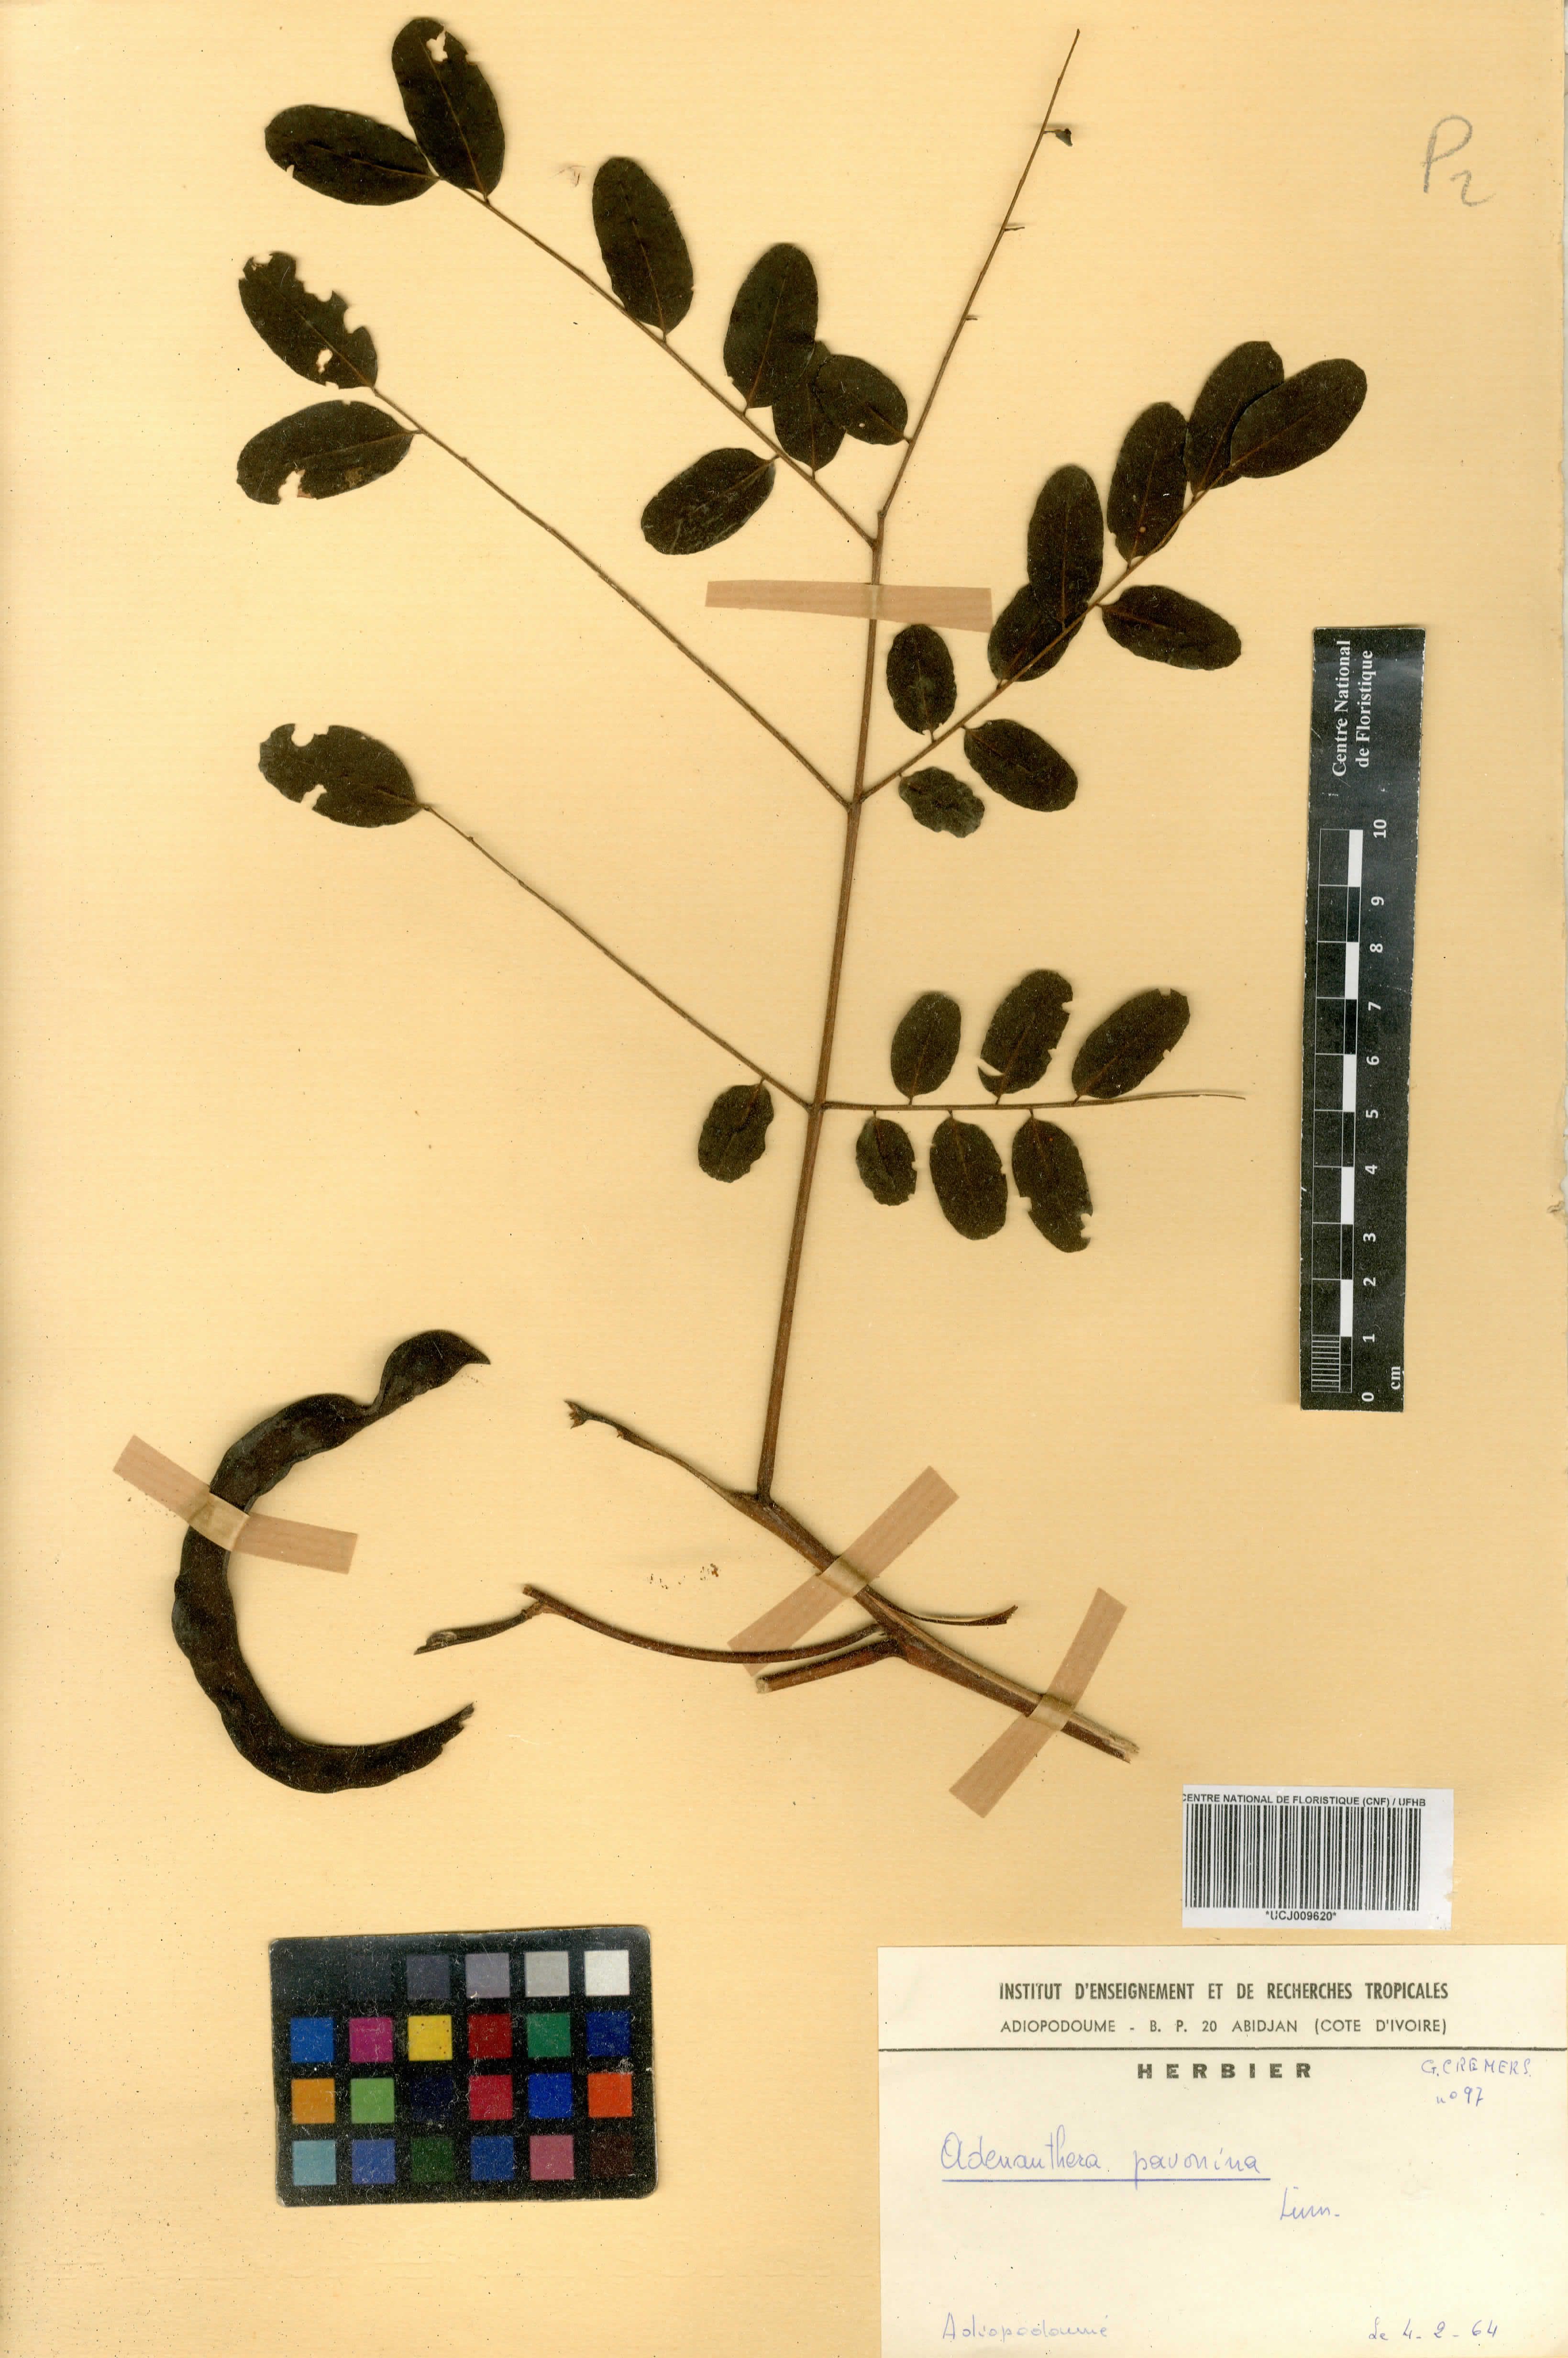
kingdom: Plantae
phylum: Tracheophyta
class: Magnoliopsida
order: Fabales
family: Fabaceae
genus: Adenanthera
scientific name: Adenanthera pavonina
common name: Red beadtree
